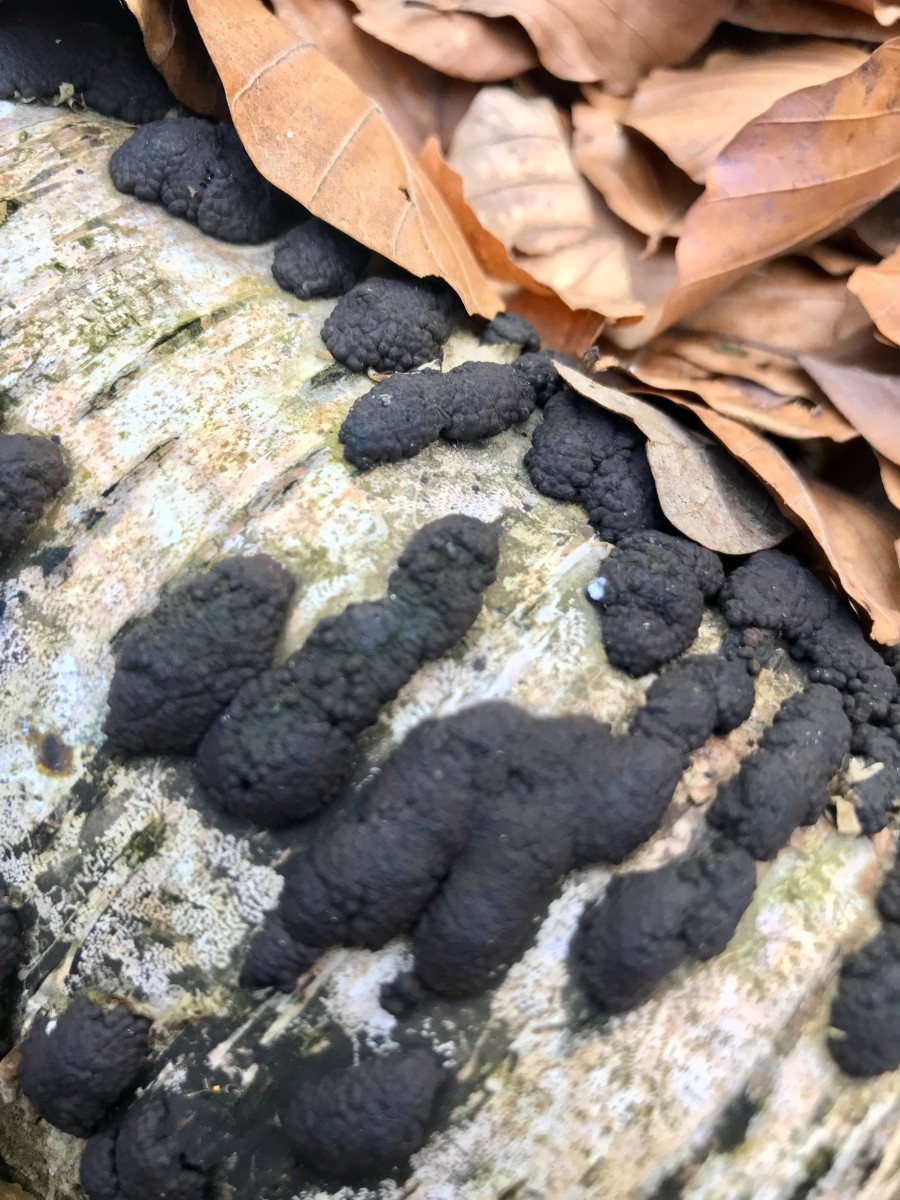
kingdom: Fungi
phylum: Ascomycota
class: Sordariomycetes
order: Xylariales
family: Hypoxylaceae
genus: Jackrogersella
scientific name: Jackrogersella multiformis
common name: foranderlig kulbær
